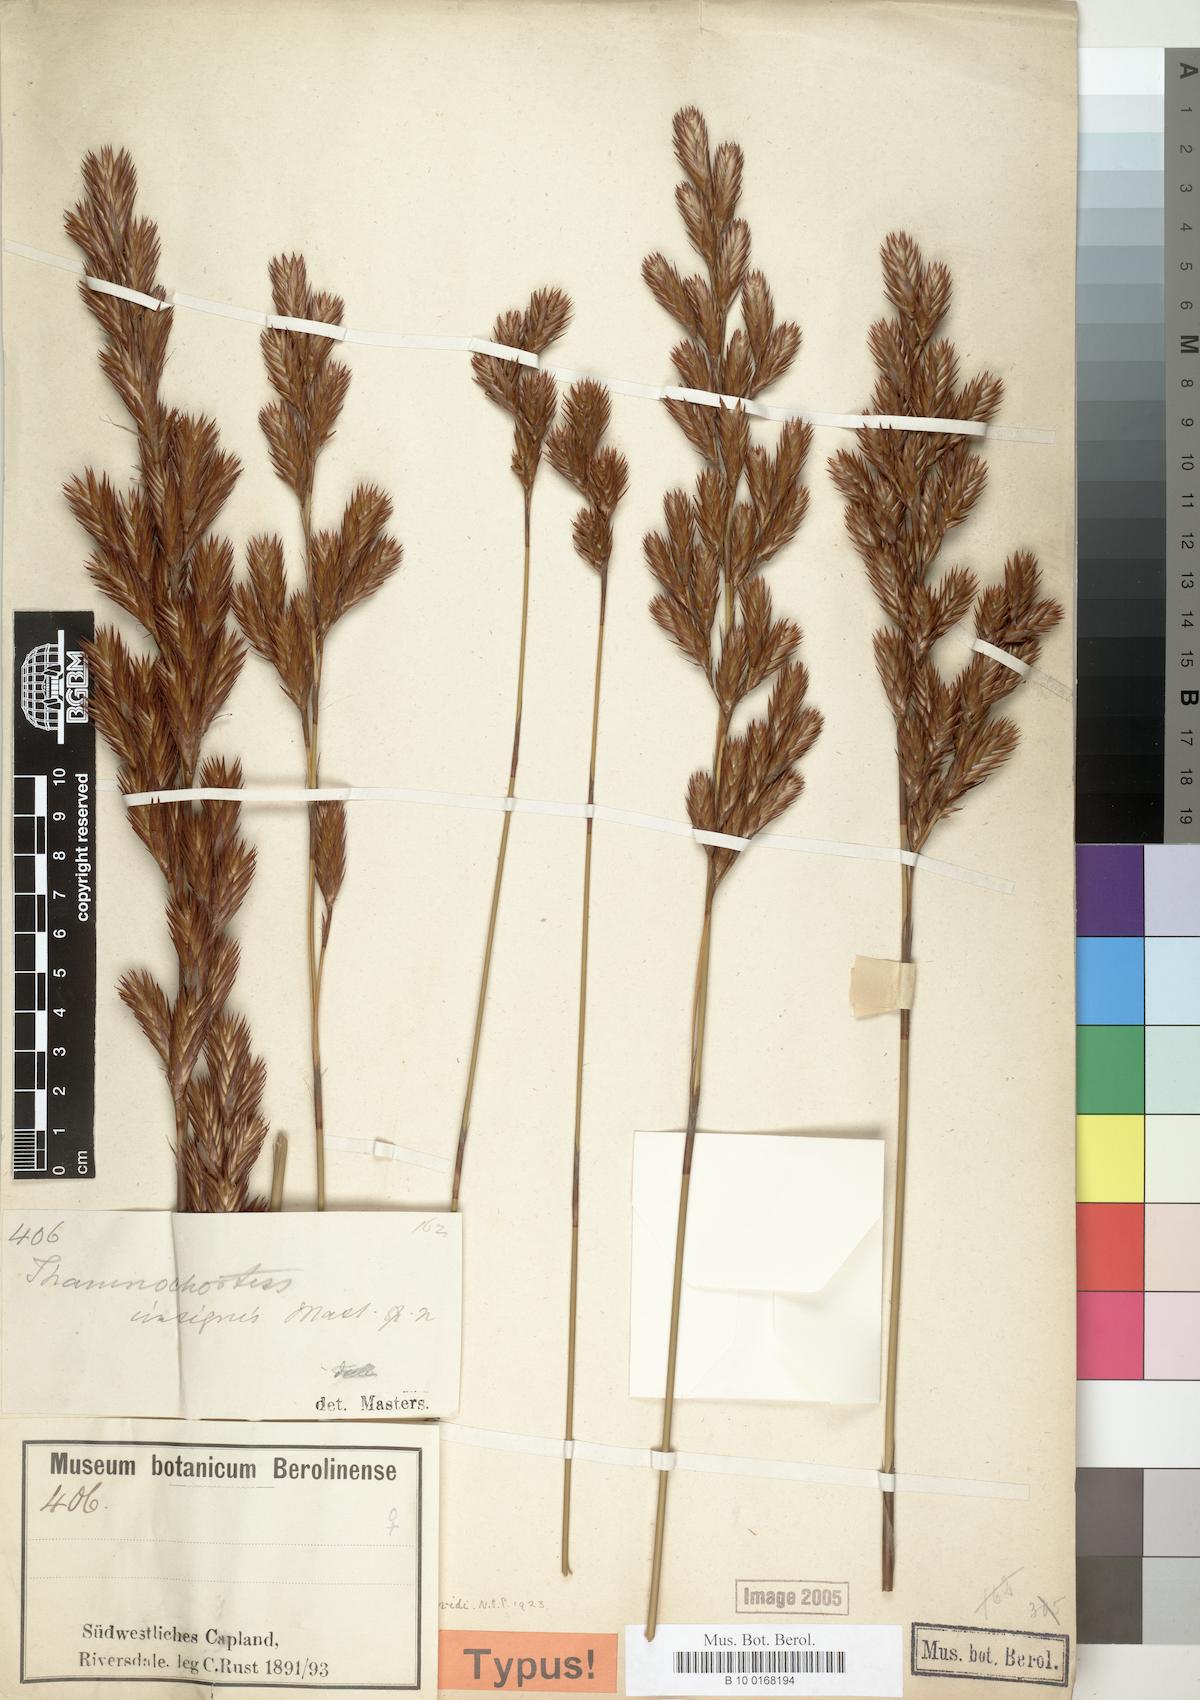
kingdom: Plantae
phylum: Tracheophyta
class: Liliopsida
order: Poales
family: Restionaceae
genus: Thamnochortus
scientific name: Thamnochortus insignis
